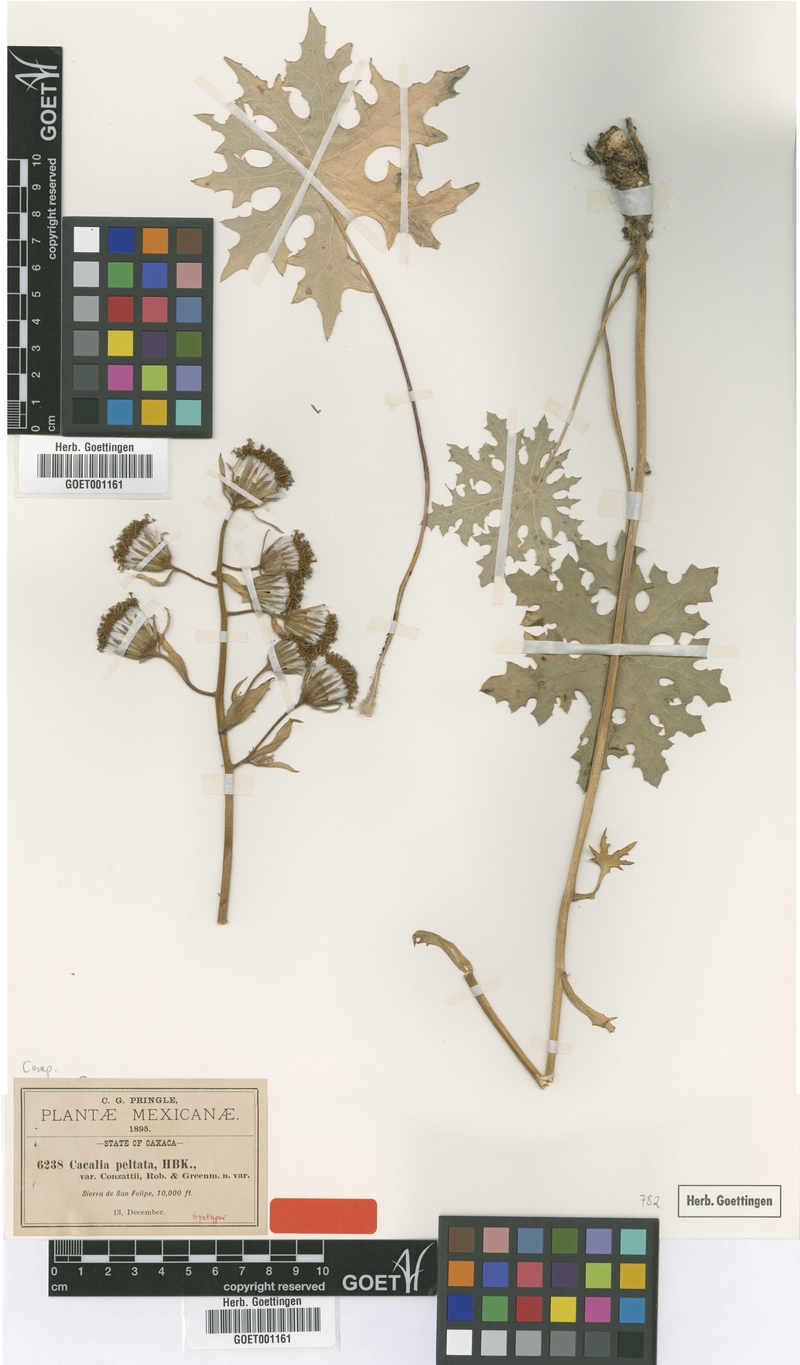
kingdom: Plantae
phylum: Tracheophyta
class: Magnoliopsida
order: Asterales
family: Asteraceae
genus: Psacalium
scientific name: Psacalium peltatum
